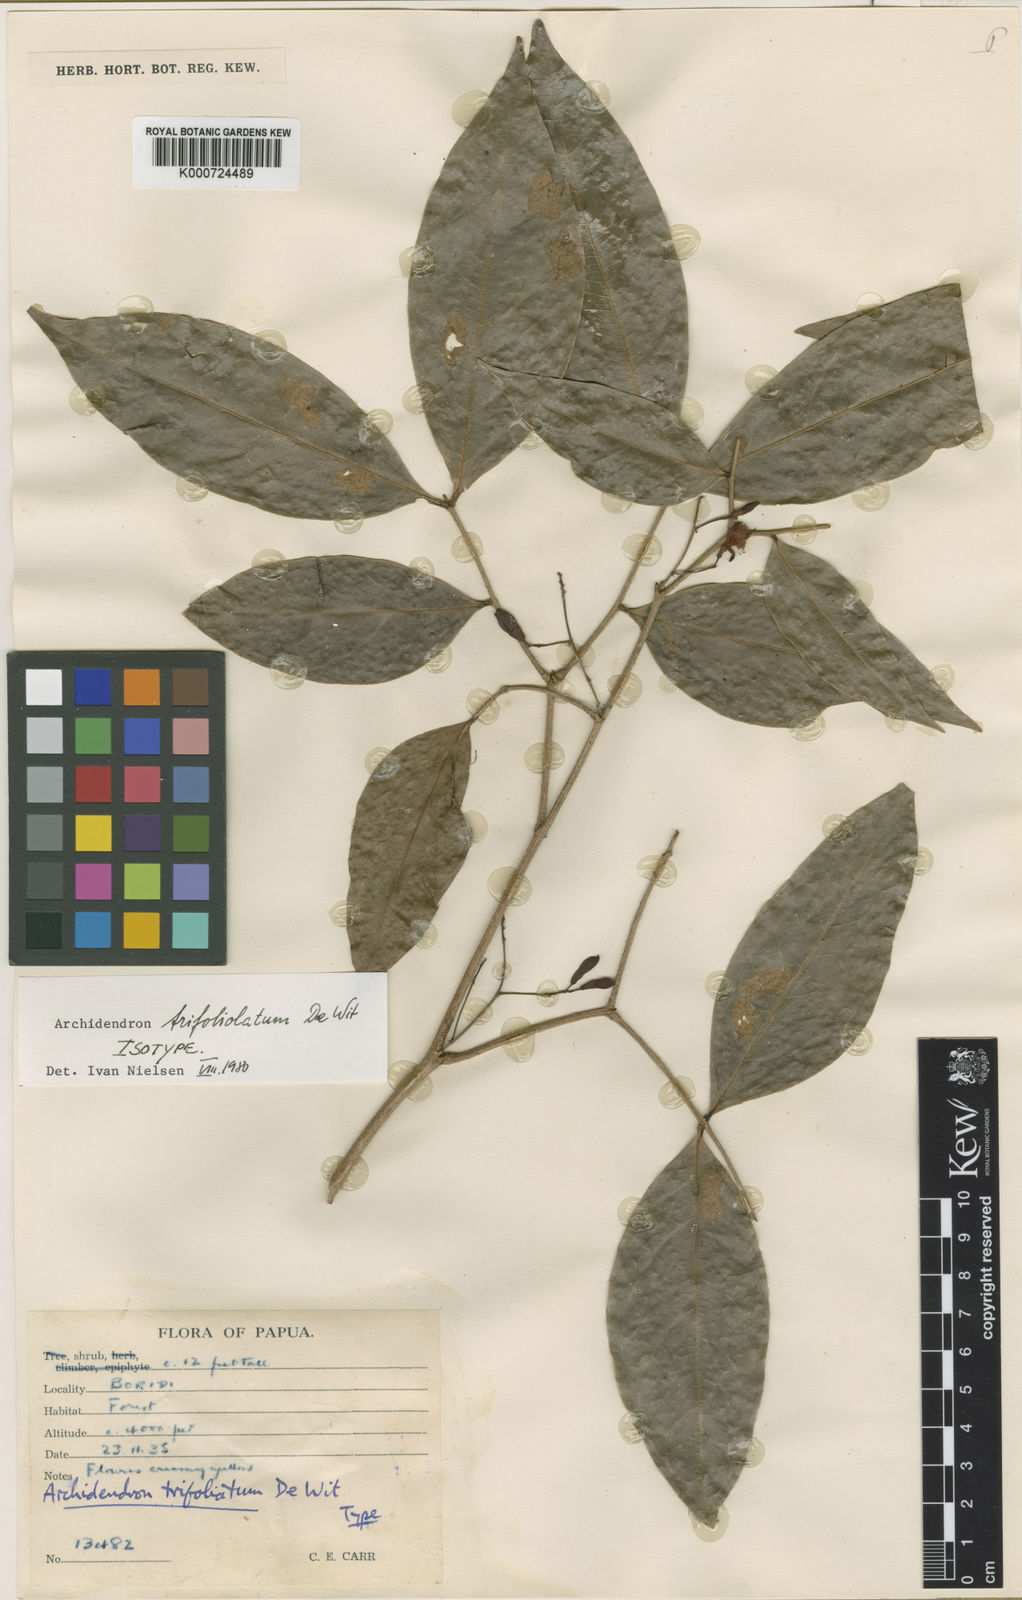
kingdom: Plantae
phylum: Tracheophyta
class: Magnoliopsida
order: Fabales
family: Fabaceae
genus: Archidendron
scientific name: Archidendron trifoliolatum
